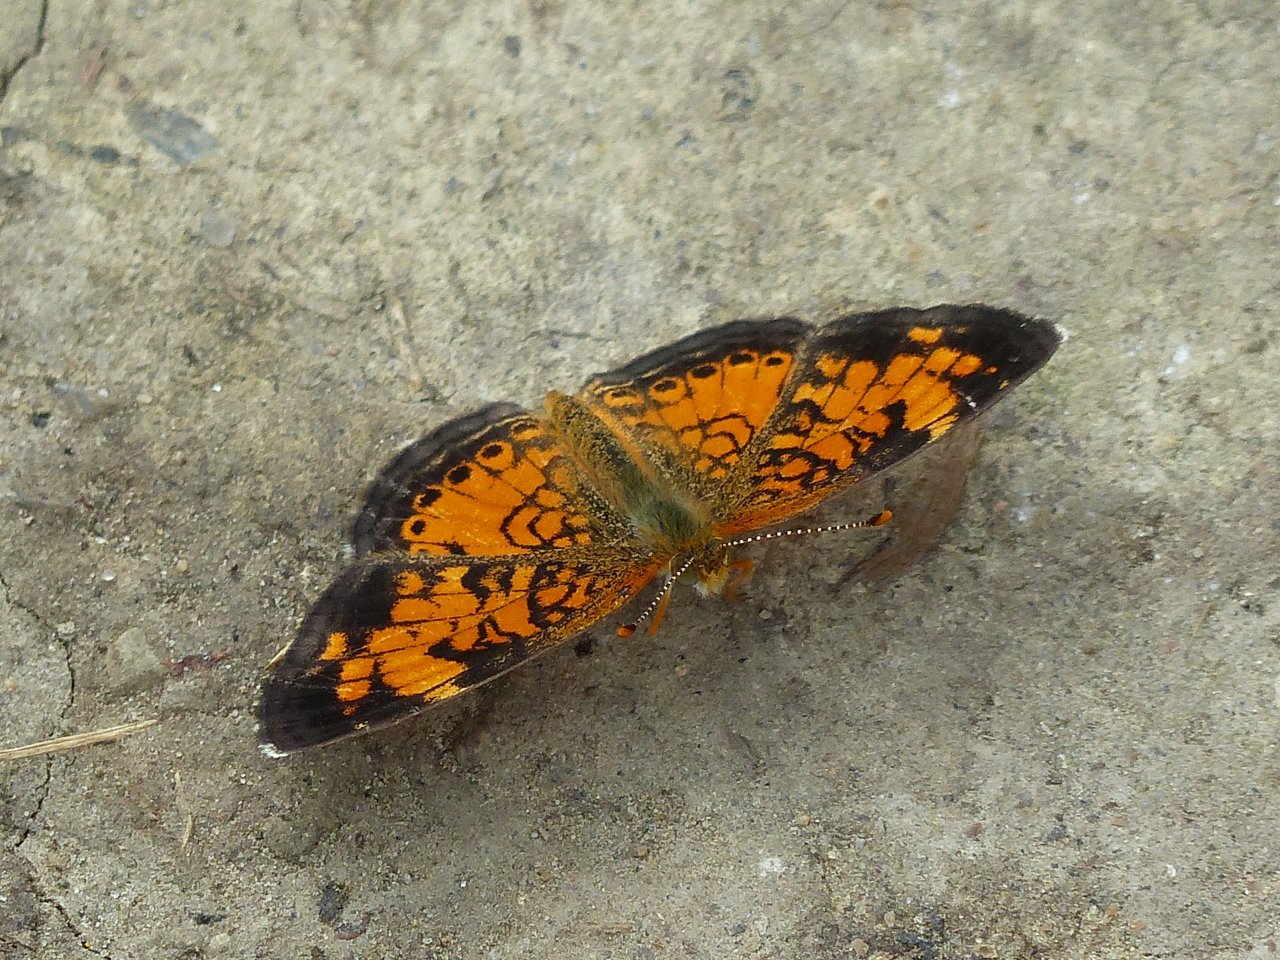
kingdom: Animalia
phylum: Arthropoda
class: Insecta
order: Lepidoptera
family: Nymphalidae
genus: Phyciodes
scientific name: Phyciodes tharos
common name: Northern Crescent
